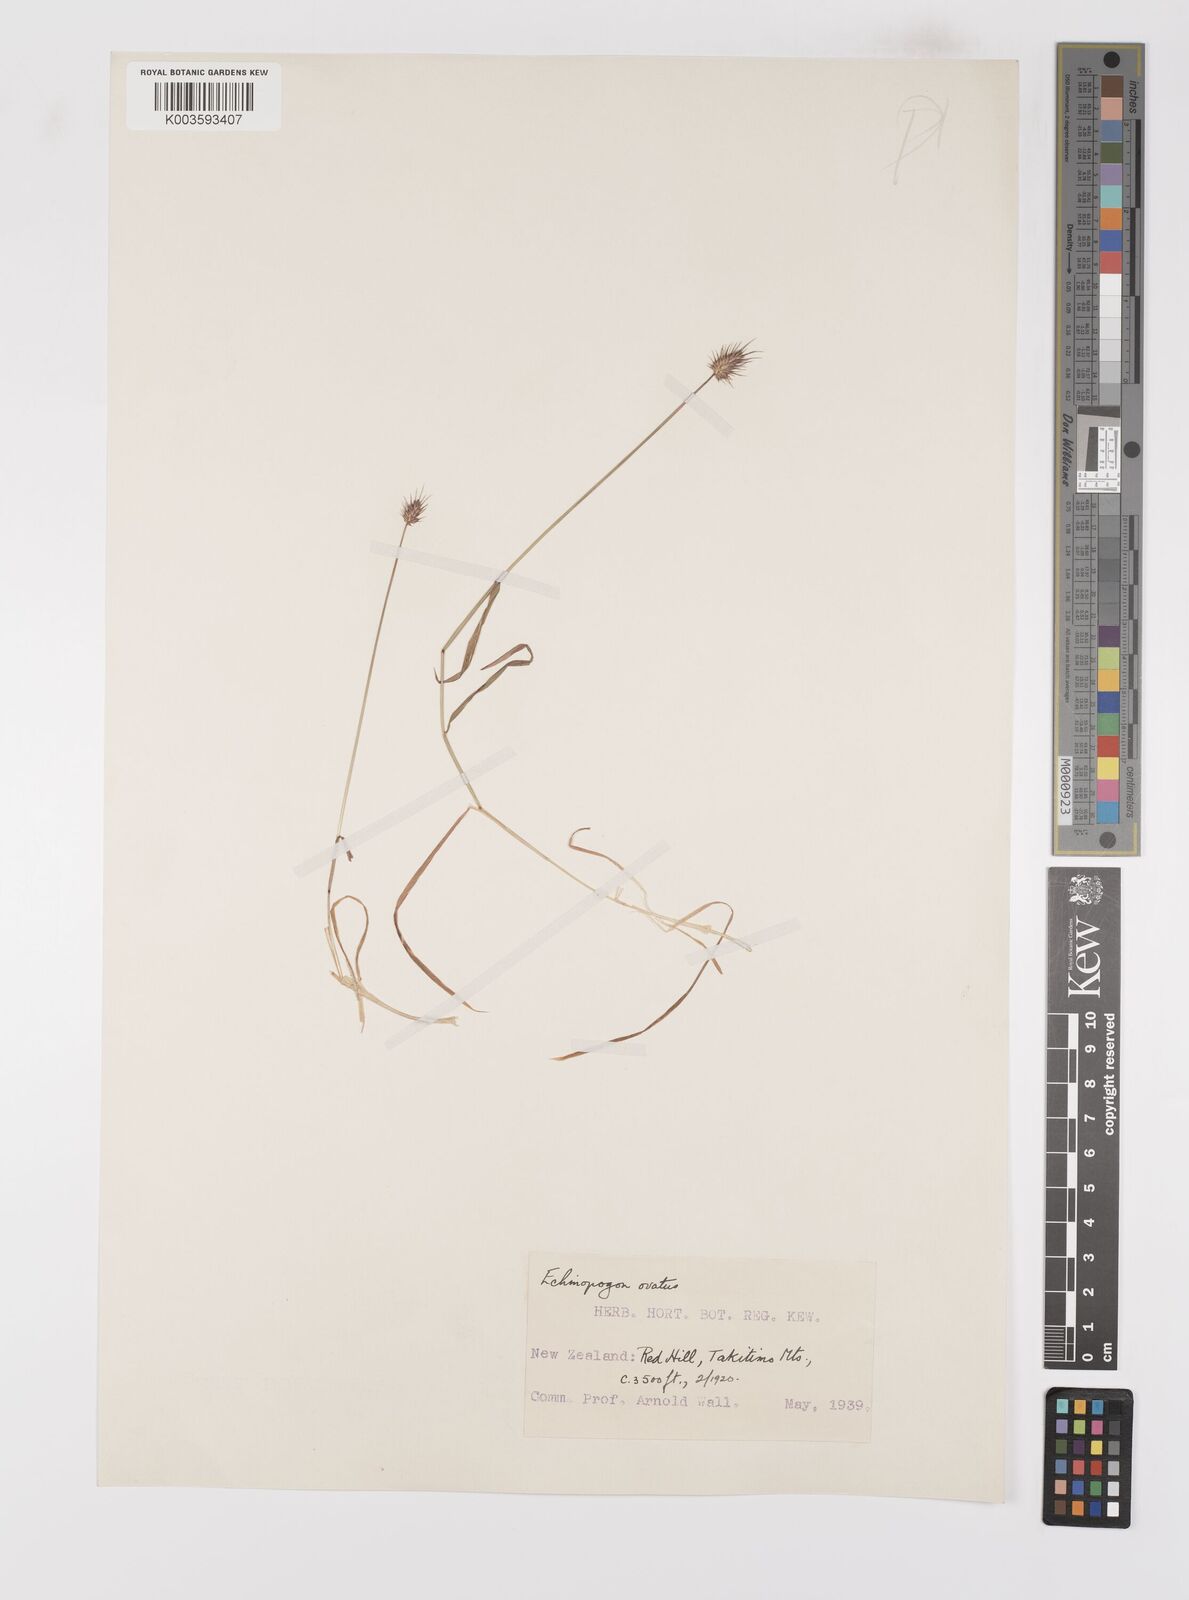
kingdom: Plantae
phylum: Tracheophyta
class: Liliopsida
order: Poales
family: Poaceae
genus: Echinopogon
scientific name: Echinopogon ovatus
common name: Hedgehog-grass
